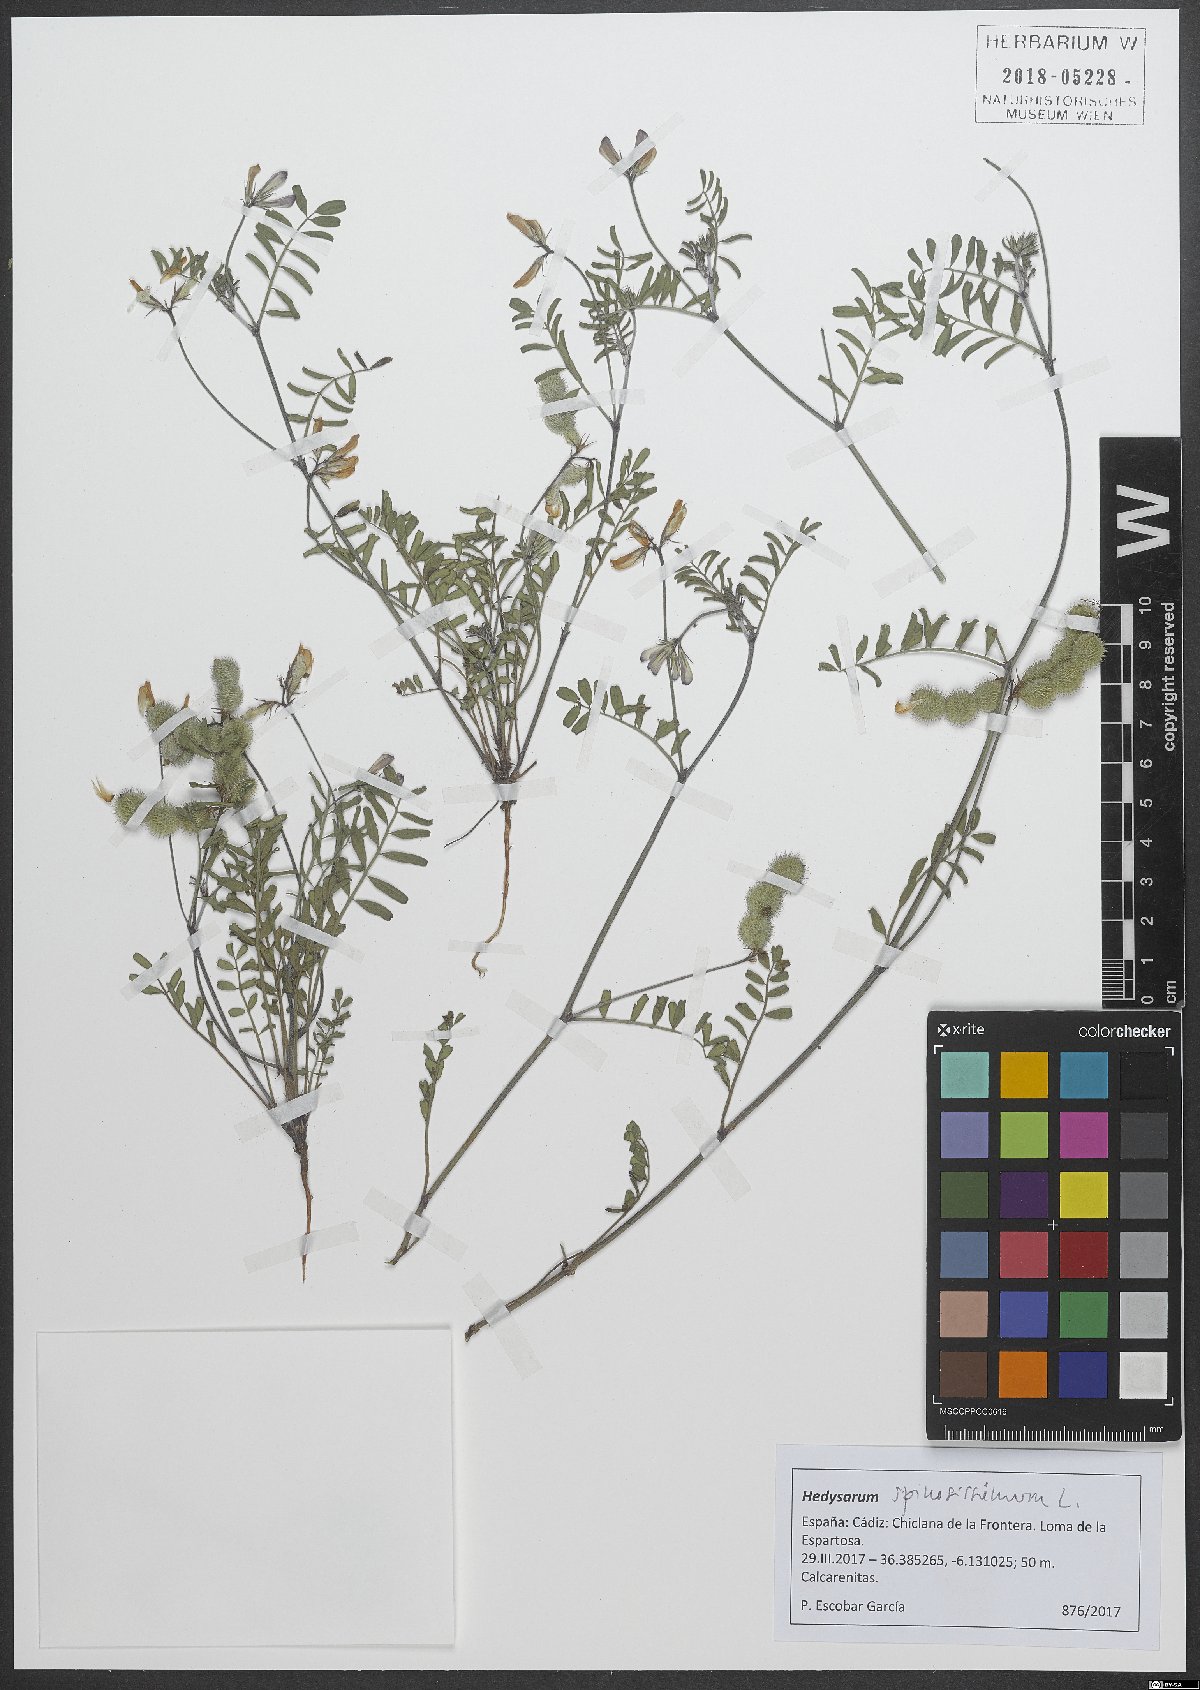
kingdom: Plantae
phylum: Tracheophyta
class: Magnoliopsida
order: Fabales
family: Fabaceae
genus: Sulla
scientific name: Sulla spinosissima
